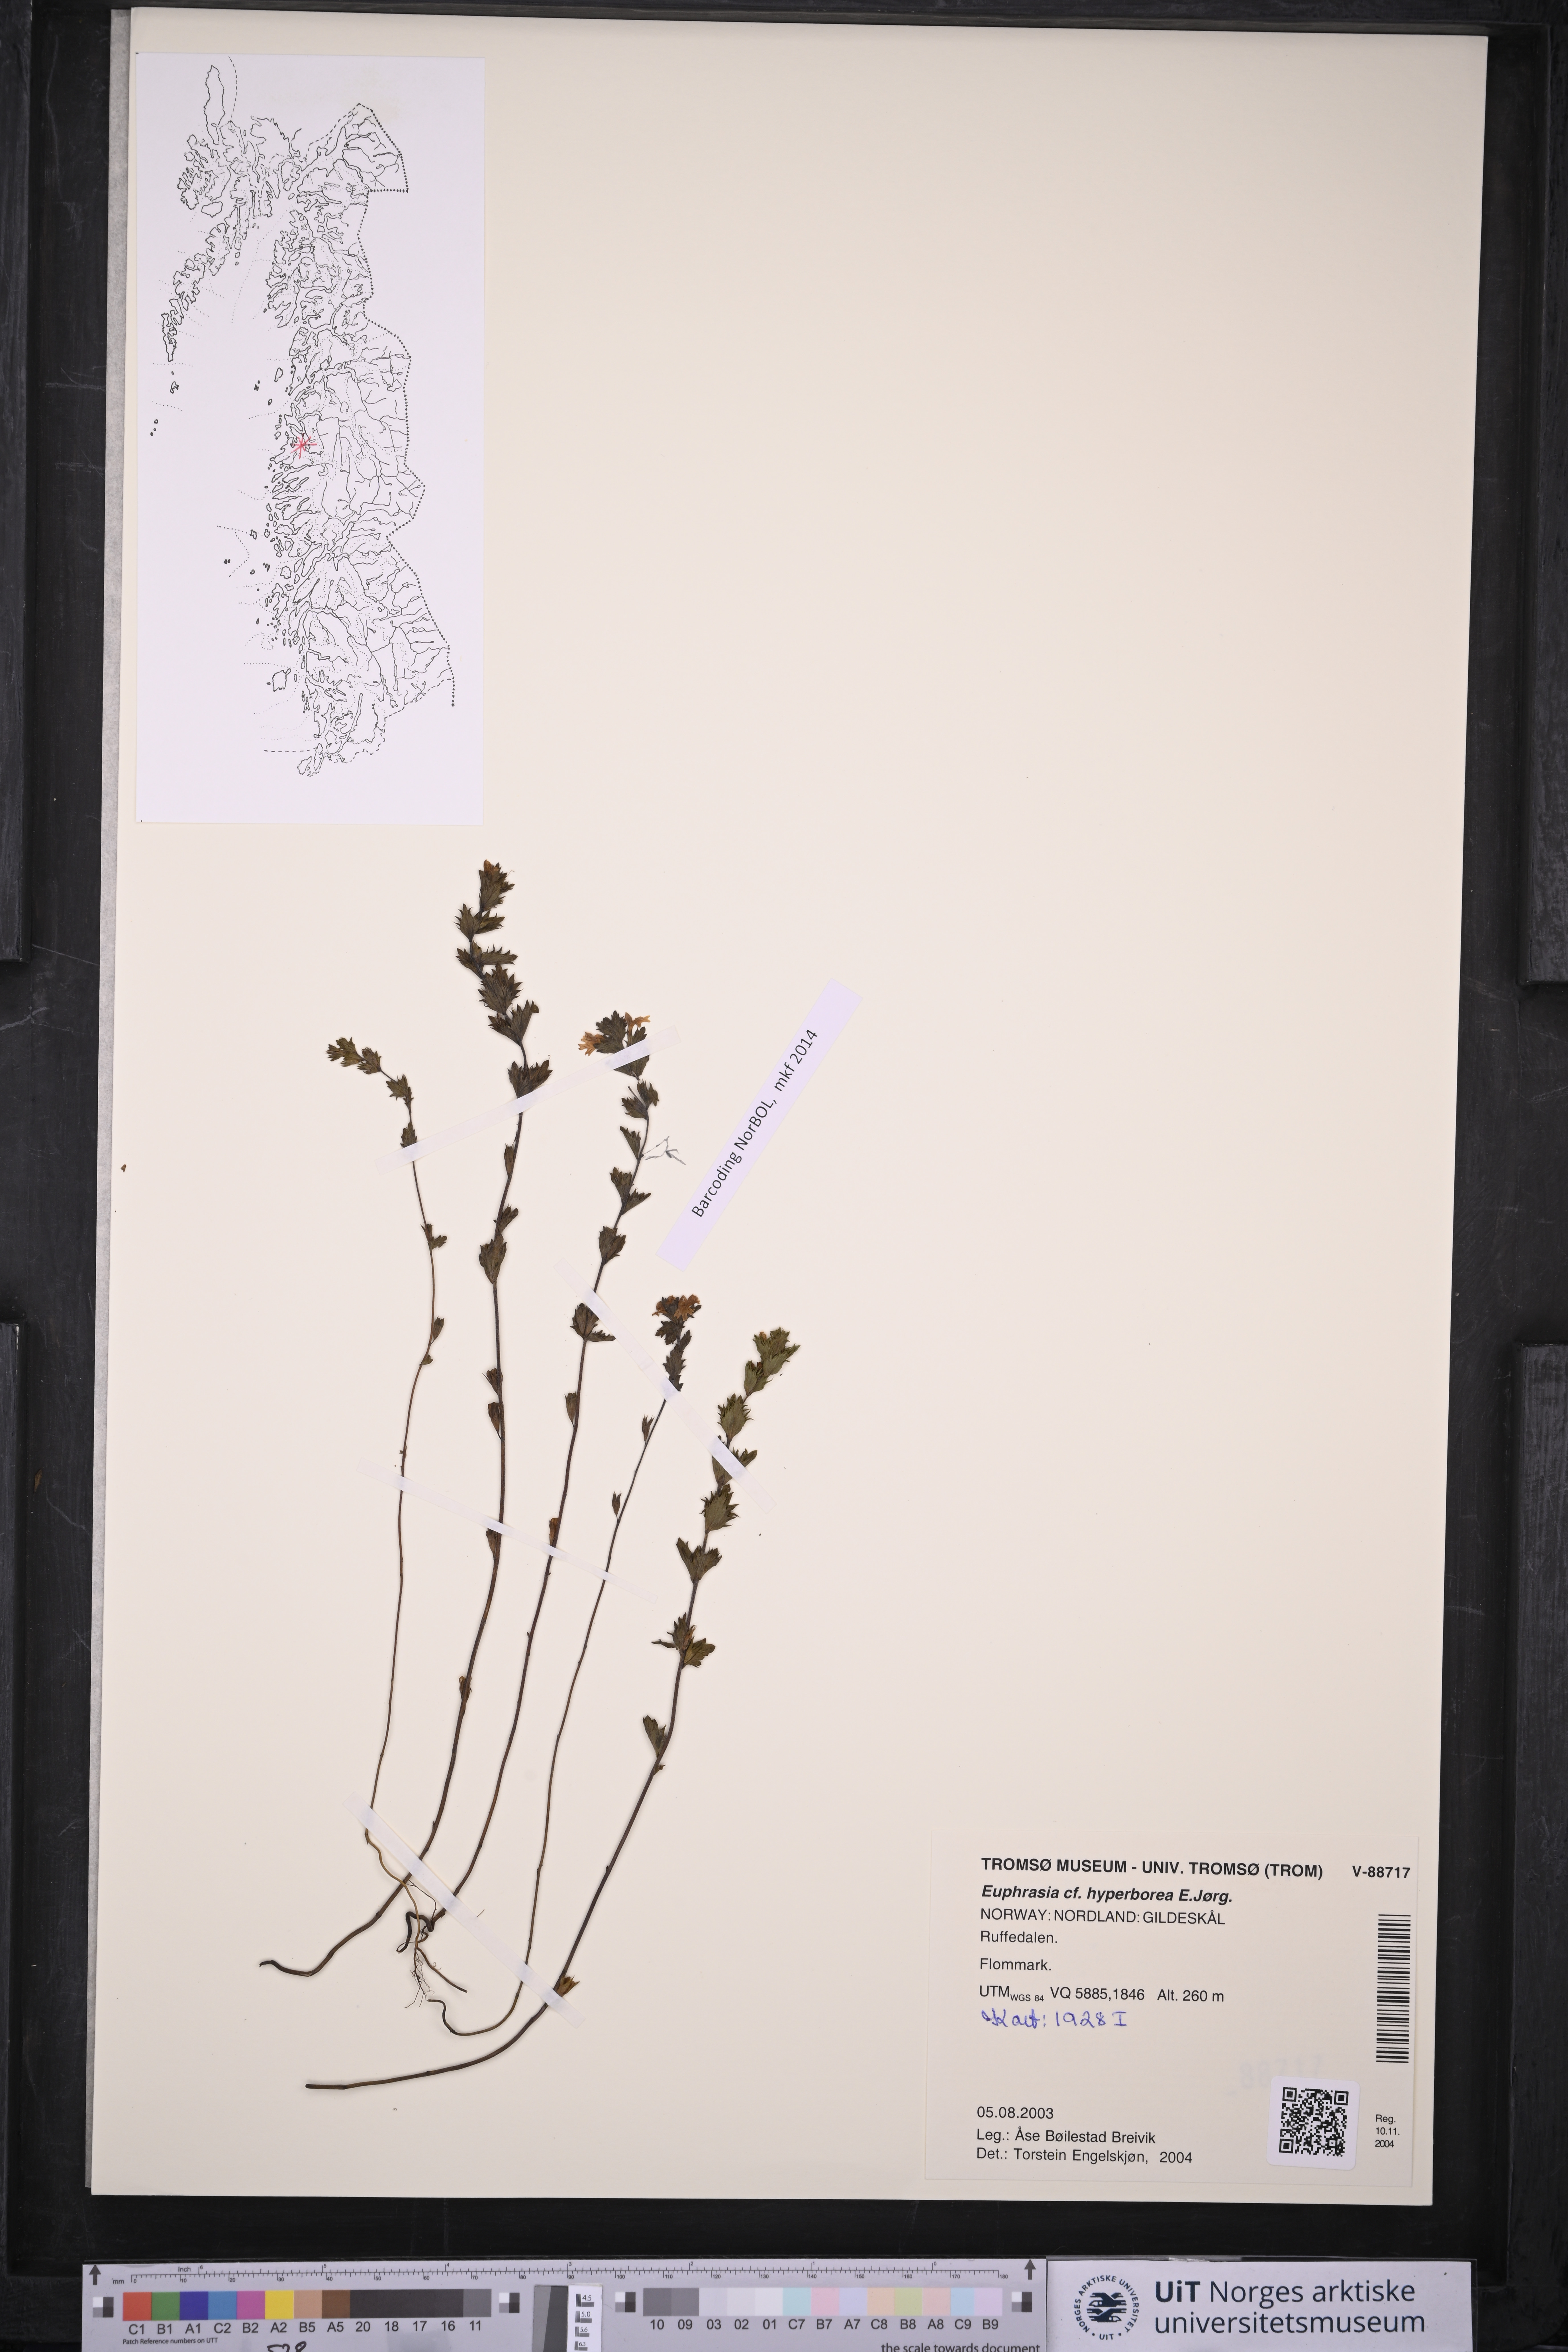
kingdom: Plantae
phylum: Tracheophyta
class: Magnoliopsida
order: Lamiales
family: Orobanchaceae
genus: Euphrasia
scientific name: Euphrasia hyperborea
